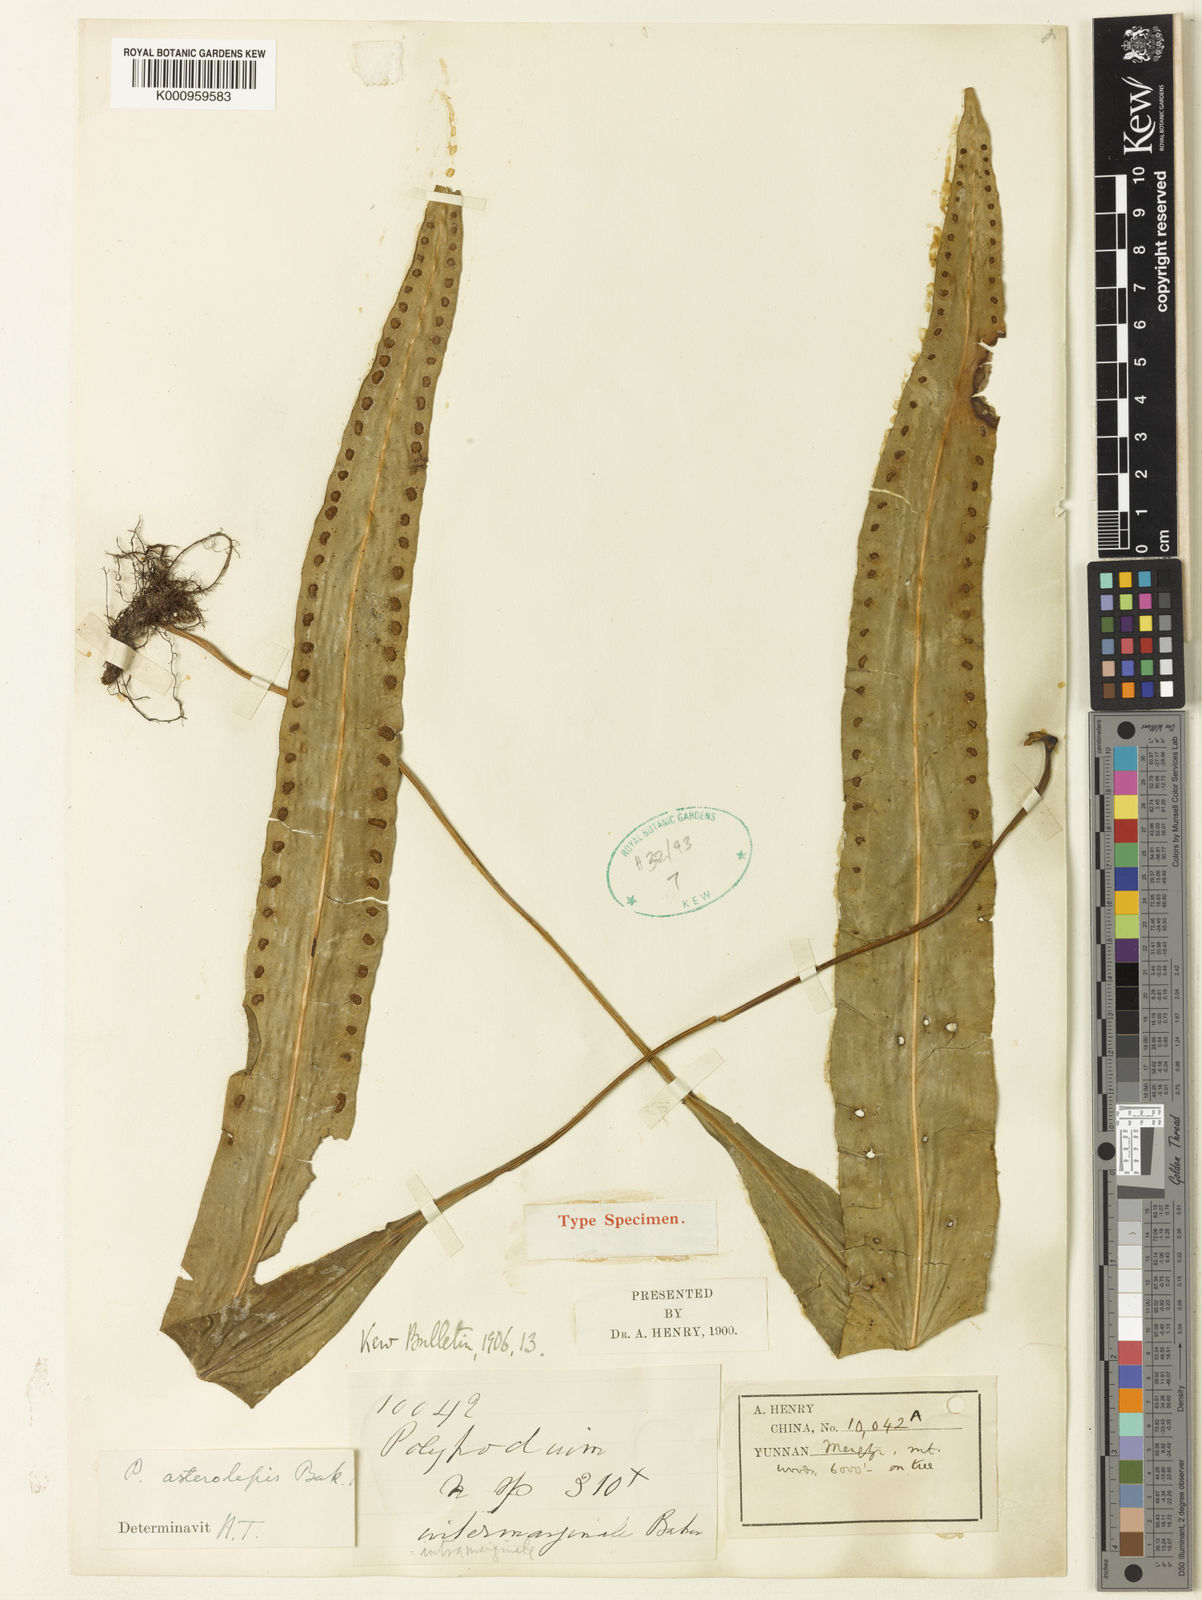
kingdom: Plantae
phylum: Tracheophyta
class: Polypodiopsida
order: Polypodiales
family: Polypodiaceae
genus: Lepisorus
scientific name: Lepisorus macrosphaerus
